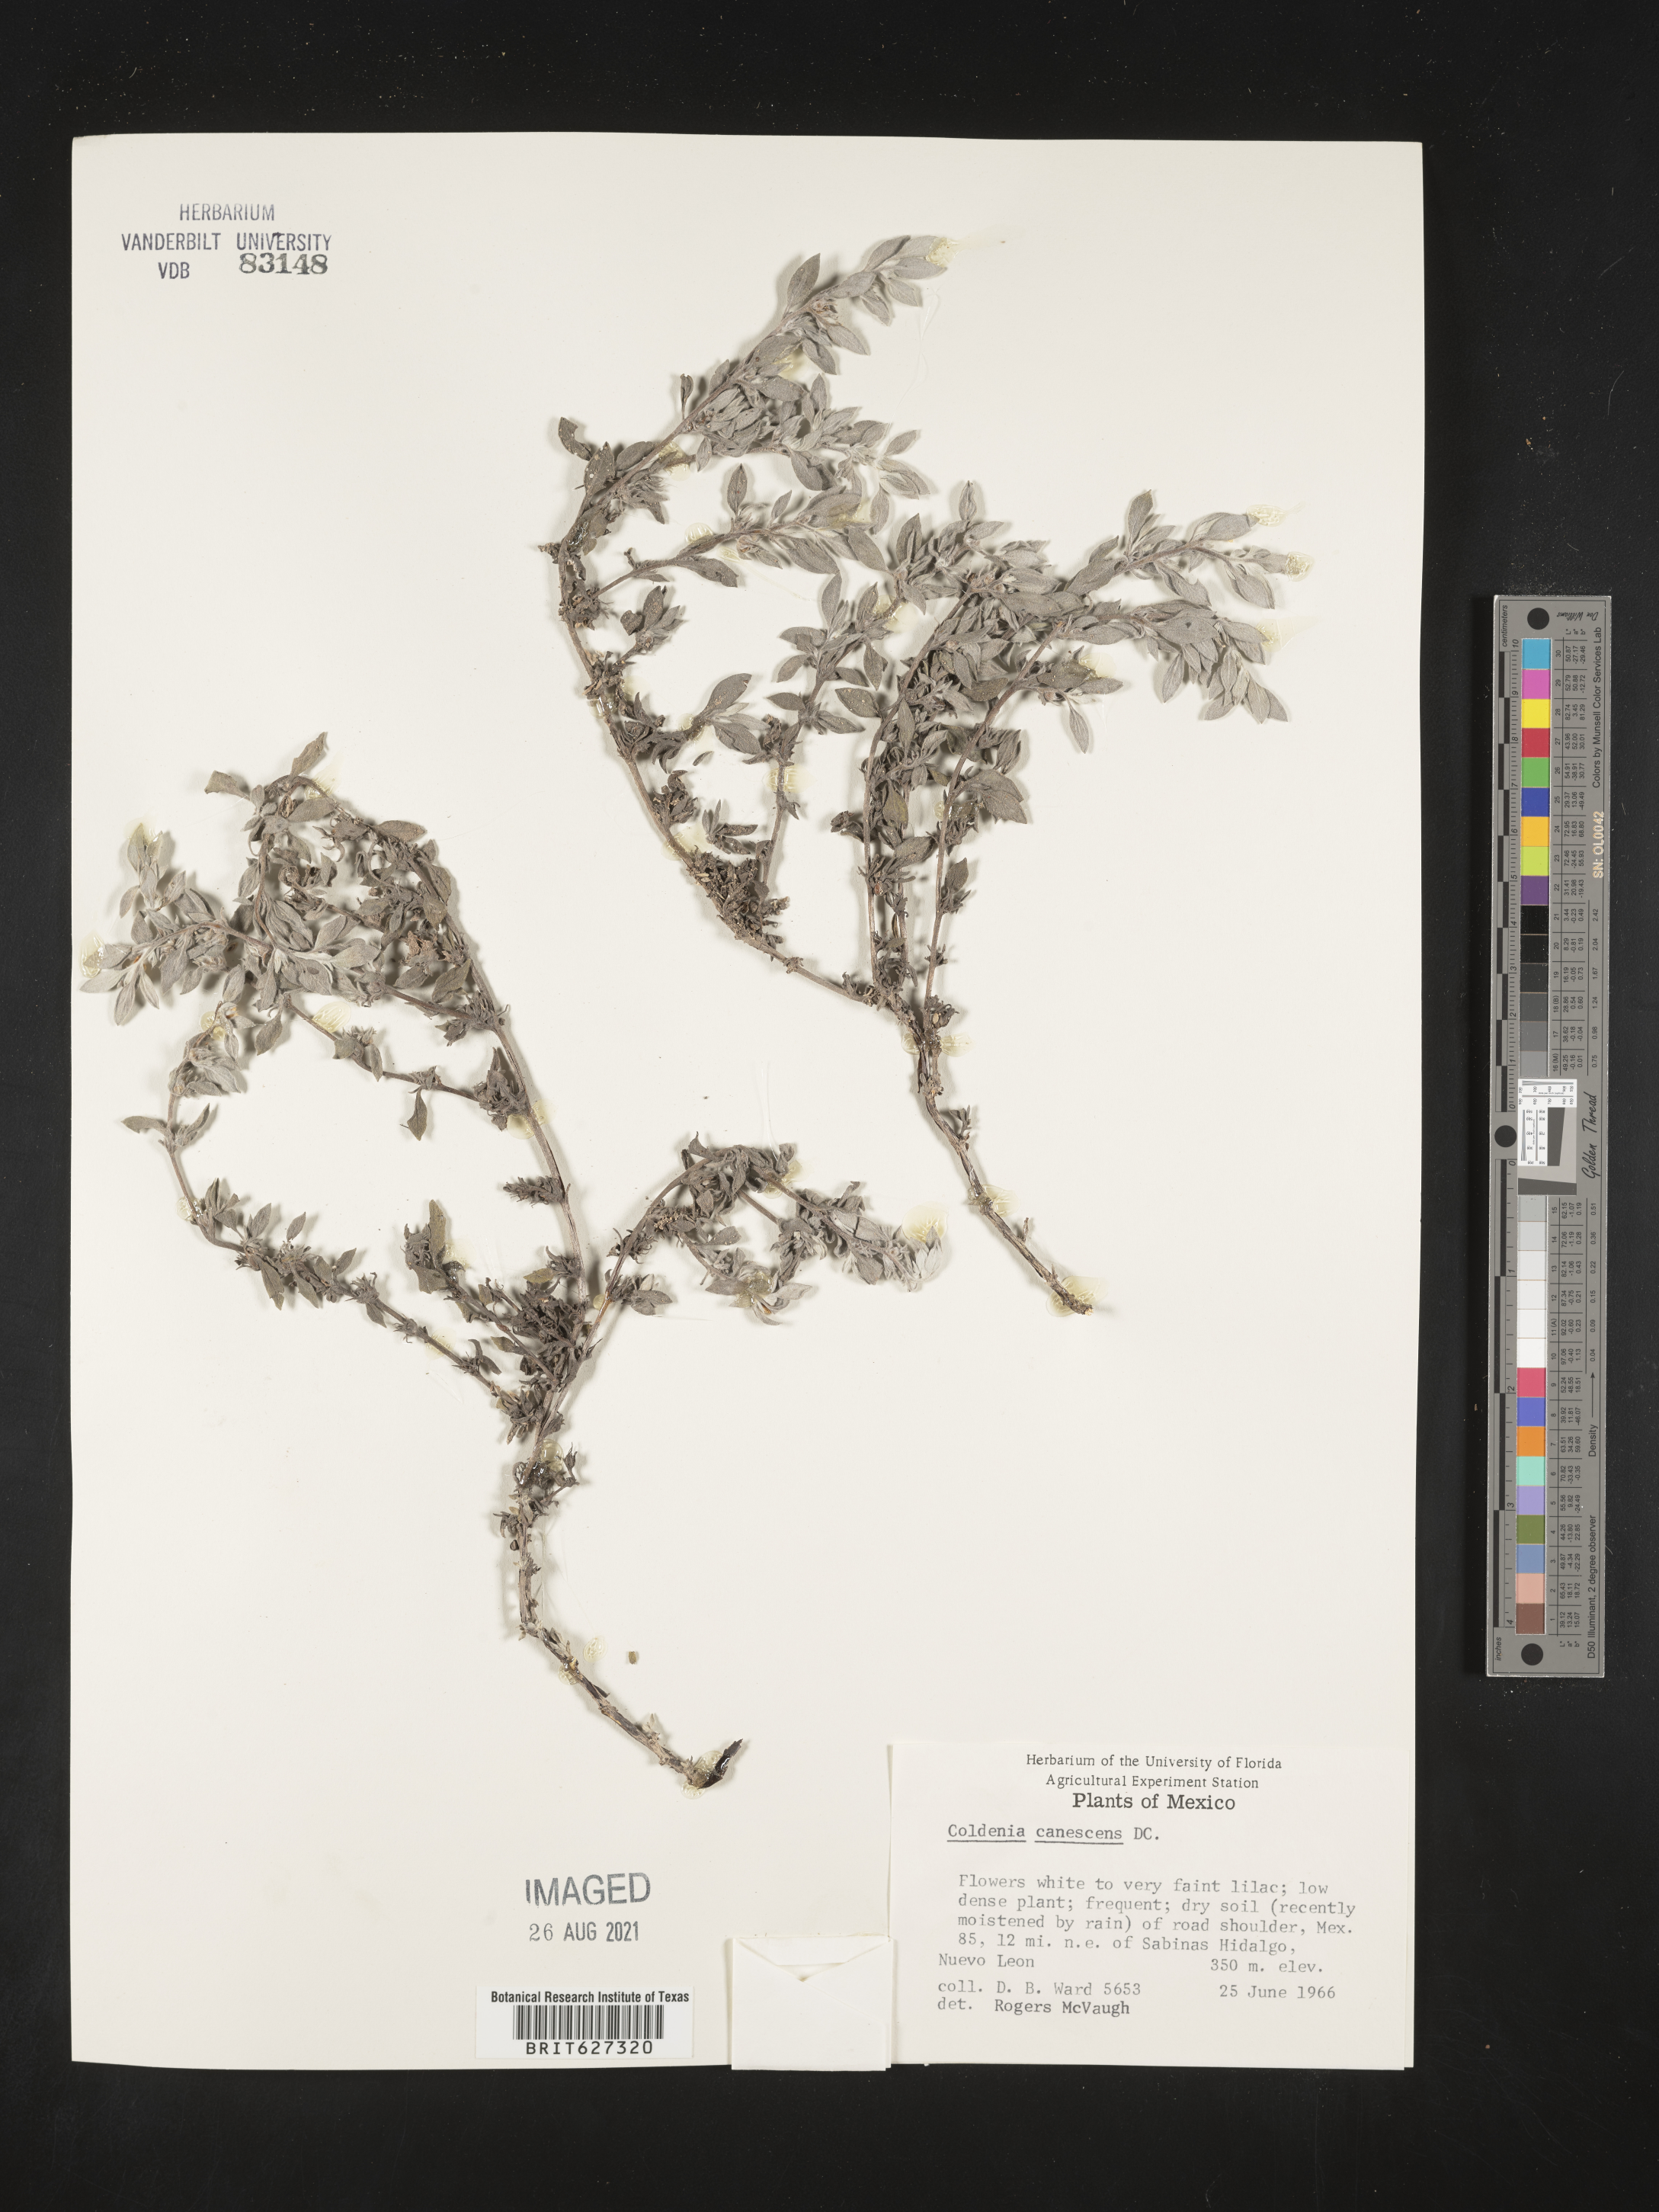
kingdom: Plantae
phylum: Tracheophyta
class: Magnoliopsida
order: Boraginales
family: Coldeniaceae
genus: Coldenia
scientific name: Coldenia
